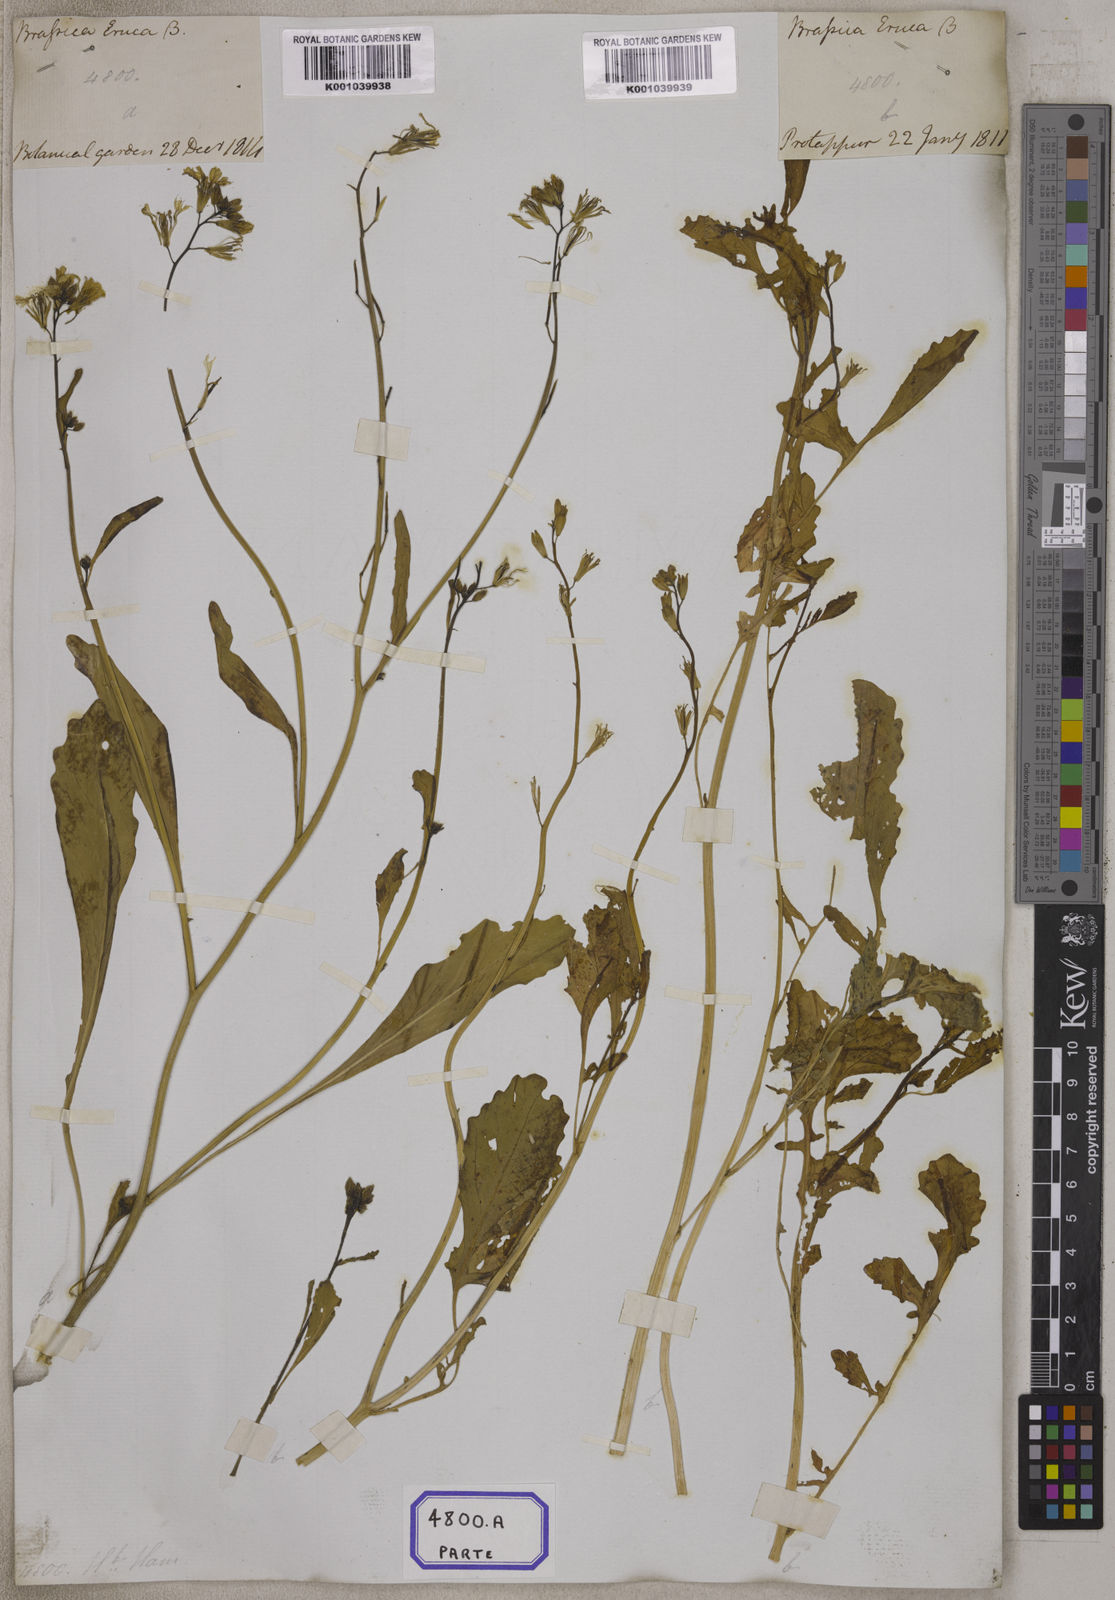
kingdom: Plantae
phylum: Tracheophyta
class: Magnoliopsida
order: Brassicales
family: Brassicaceae
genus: Eruca
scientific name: Eruca
